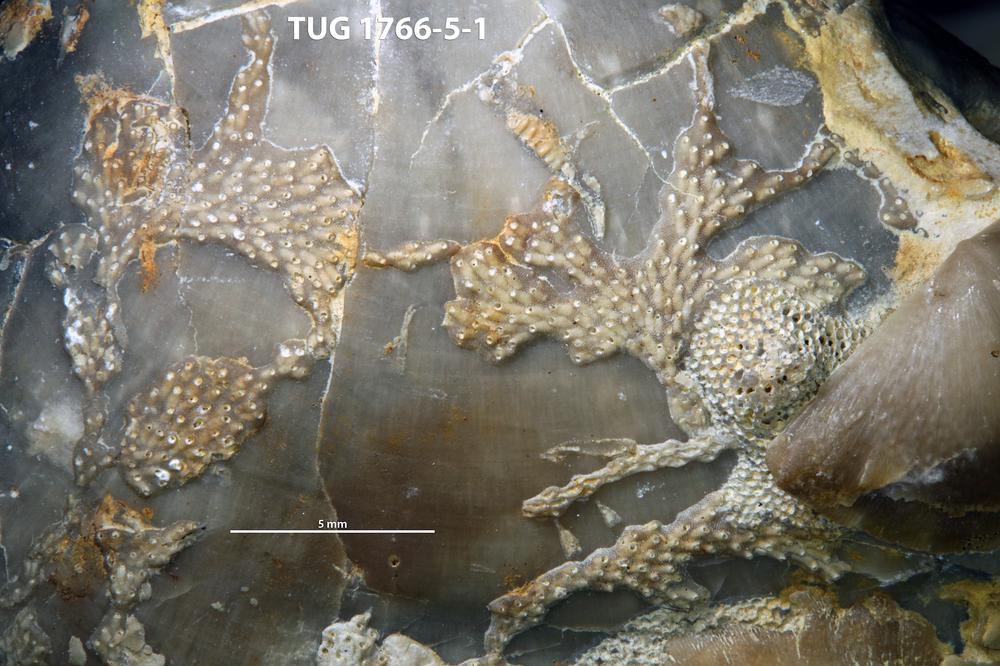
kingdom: Animalia
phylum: Bryozoa
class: Stenolaemata
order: Cyclostomatida
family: Crownoporidae
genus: Cuffeyella
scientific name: Cuffeyella
